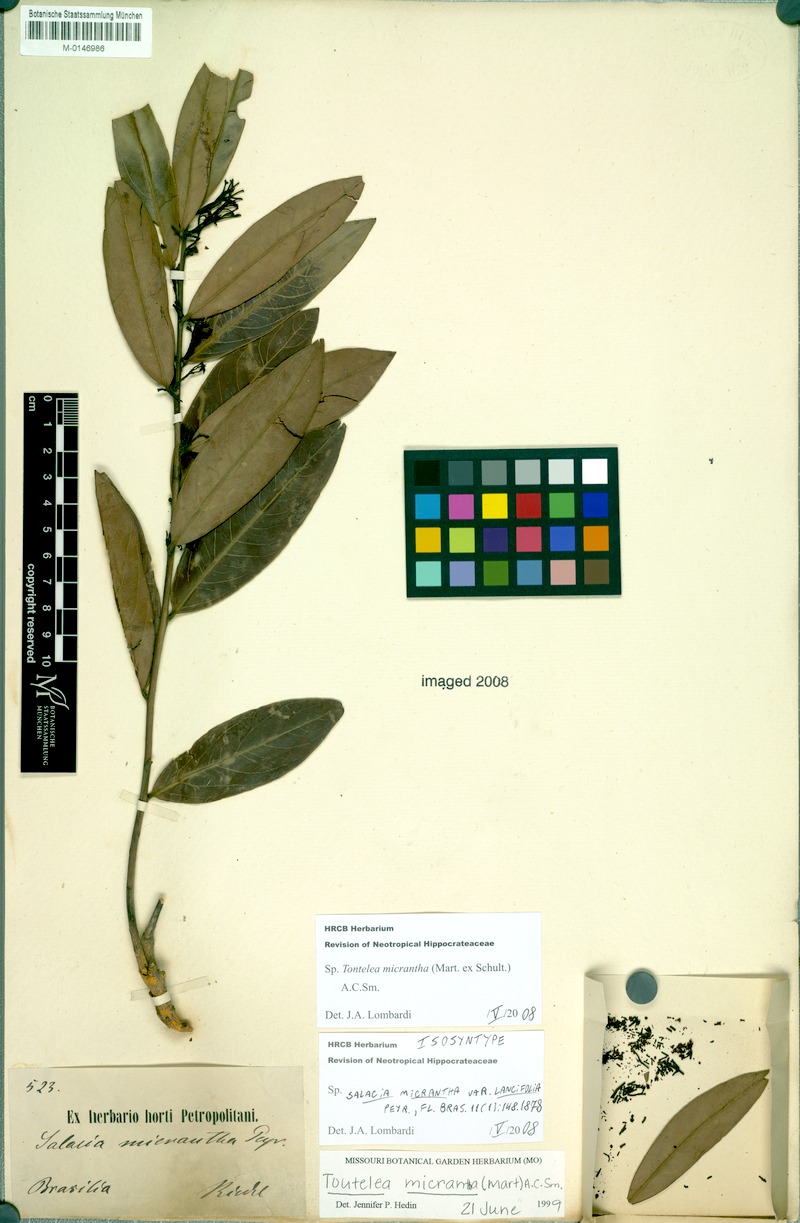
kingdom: Plantae
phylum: Tracheophyta
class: Magnoliopsida
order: Celastrales
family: Celastraceae
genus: Tontelea
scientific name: Tontelea micrantha
